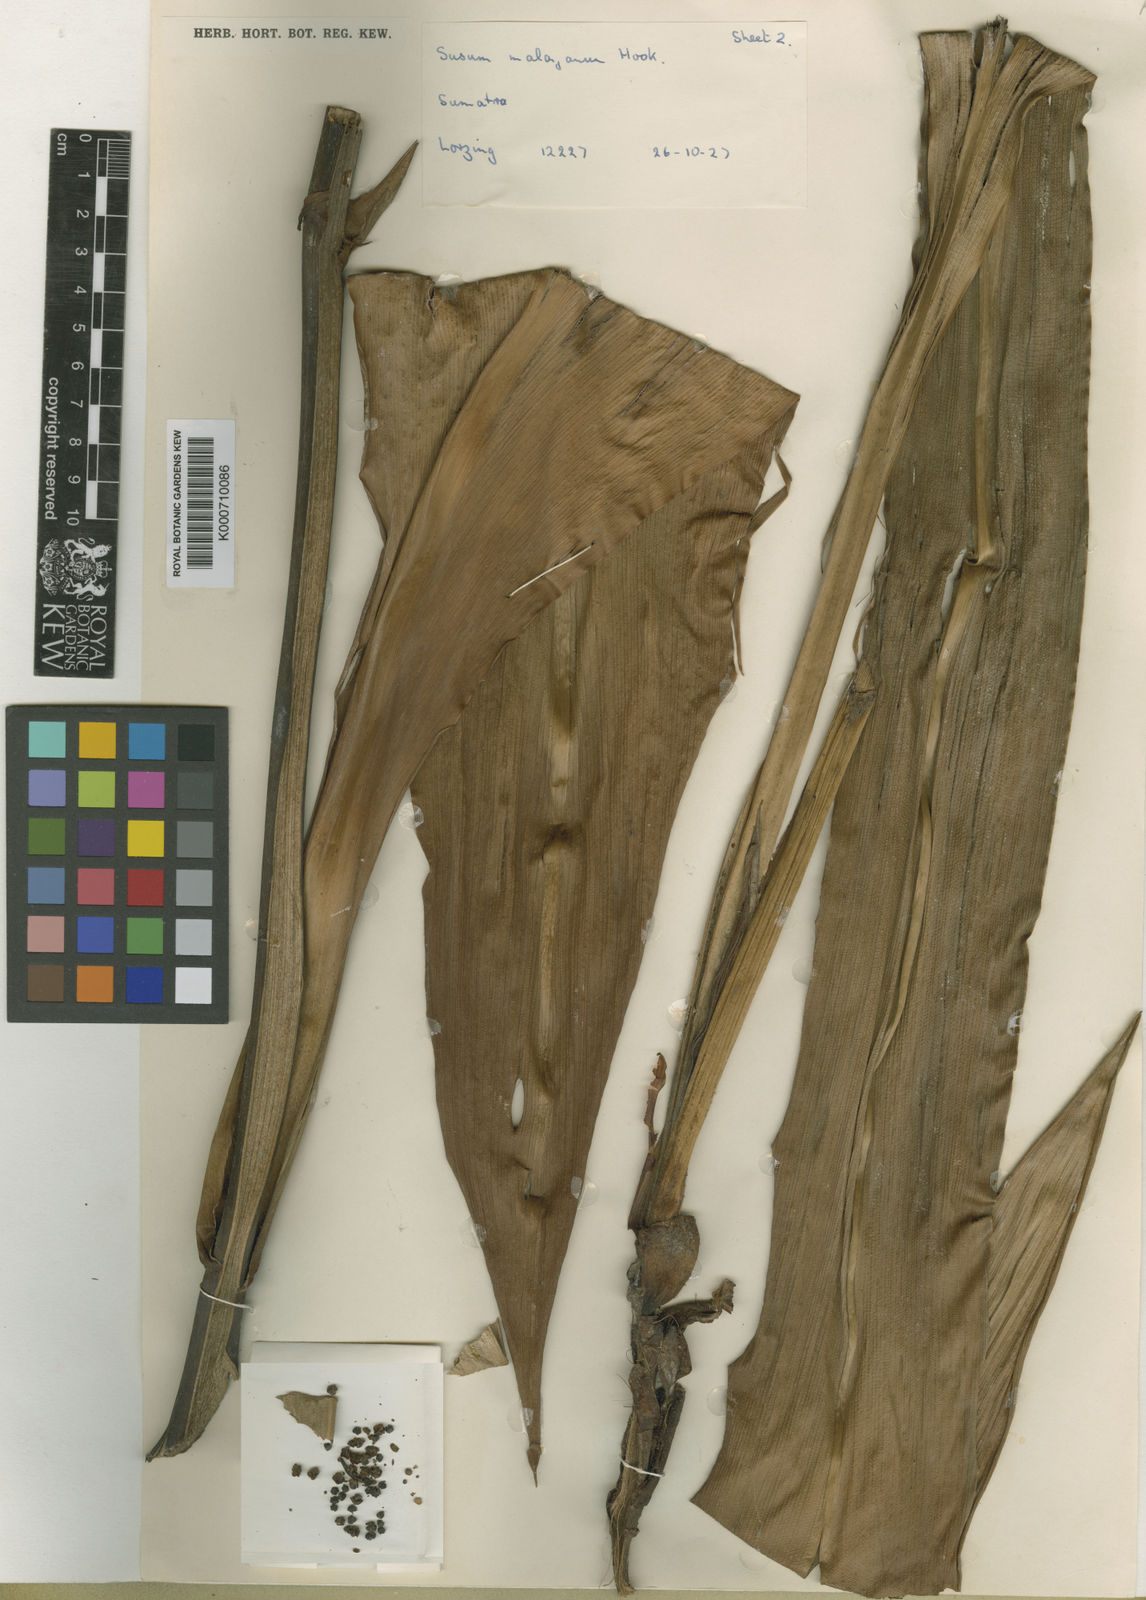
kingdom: Plantae
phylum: Tracheophyta
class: Liliopsida
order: Commelinales
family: Hanguanaceae
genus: Hanguana
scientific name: Hanguana malayana
